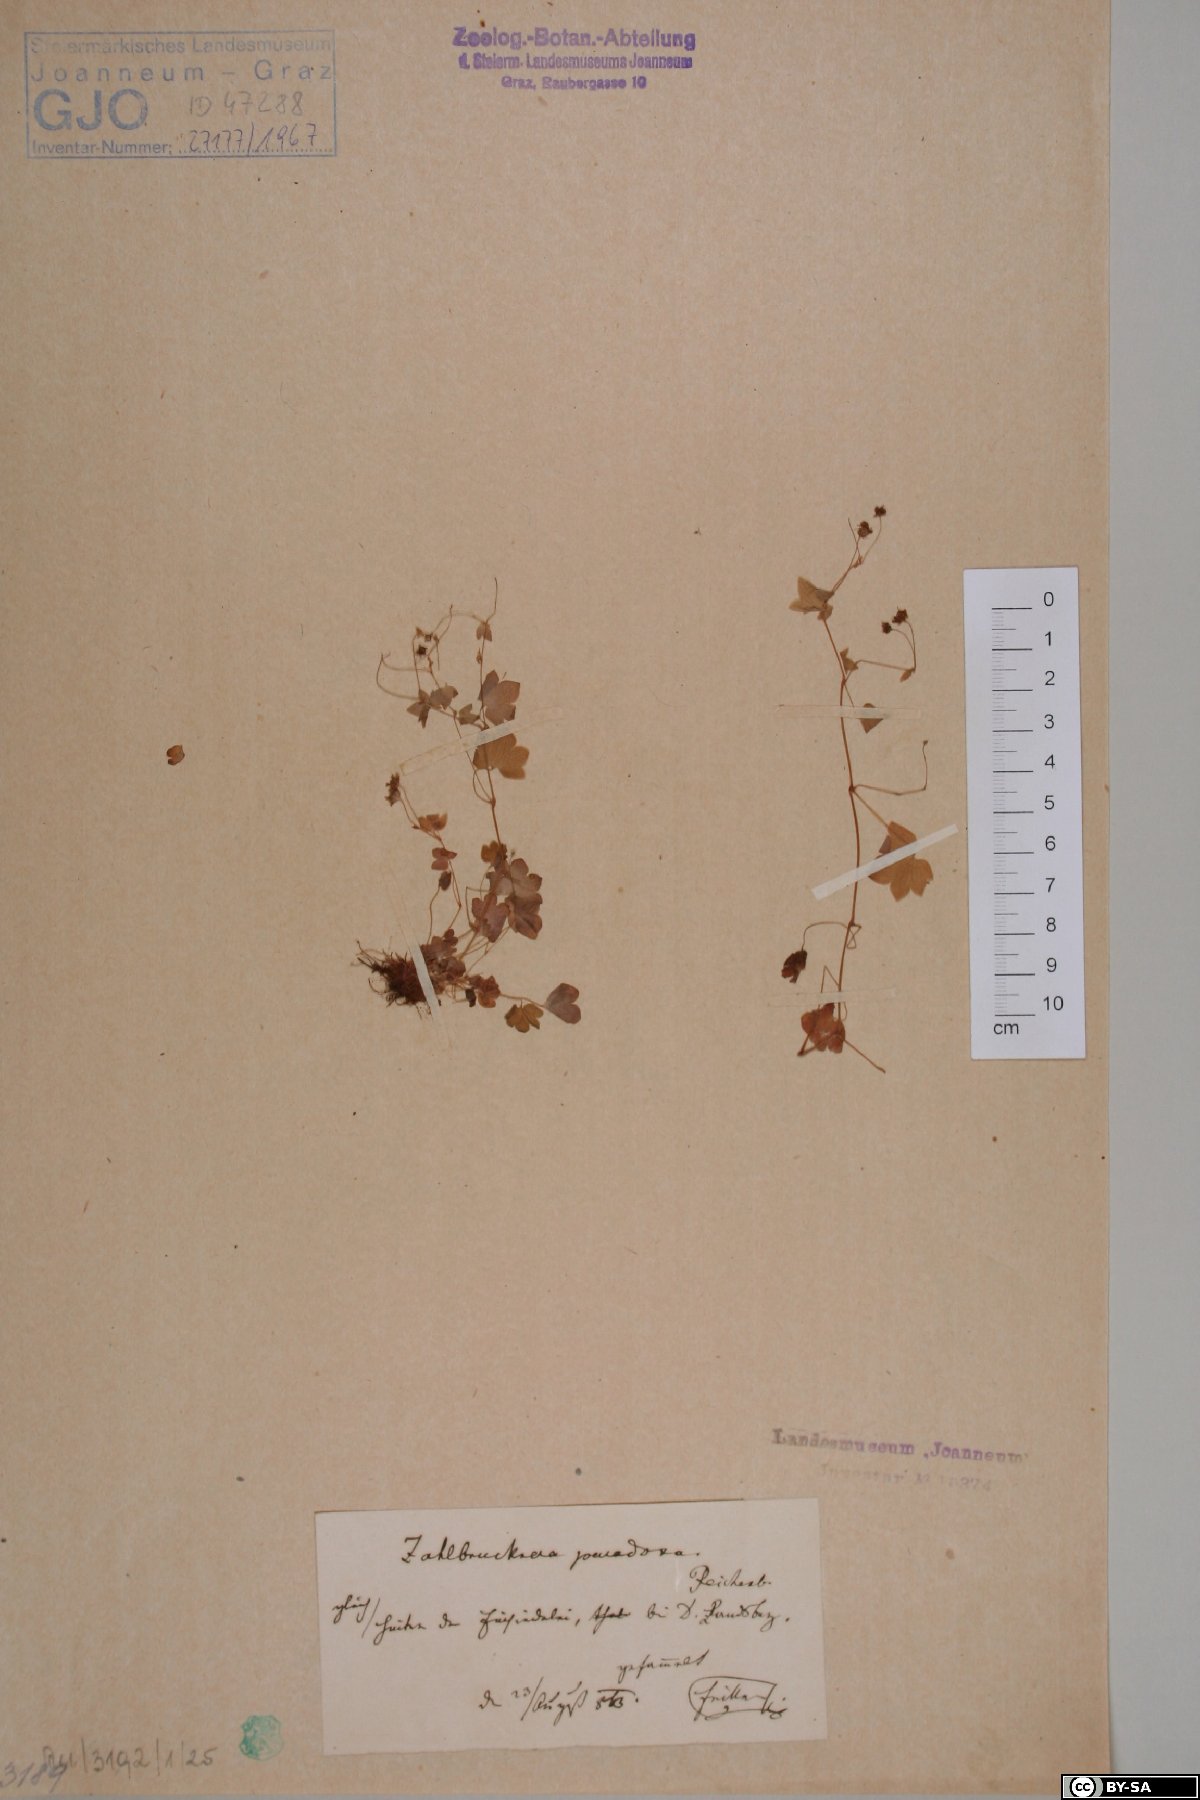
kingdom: Plantae
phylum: Tracheophyta
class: Magnoliopsida
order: Saxifragales
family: Saxifragaceae
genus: Saxifraga
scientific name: Saxifraga paradoxa
